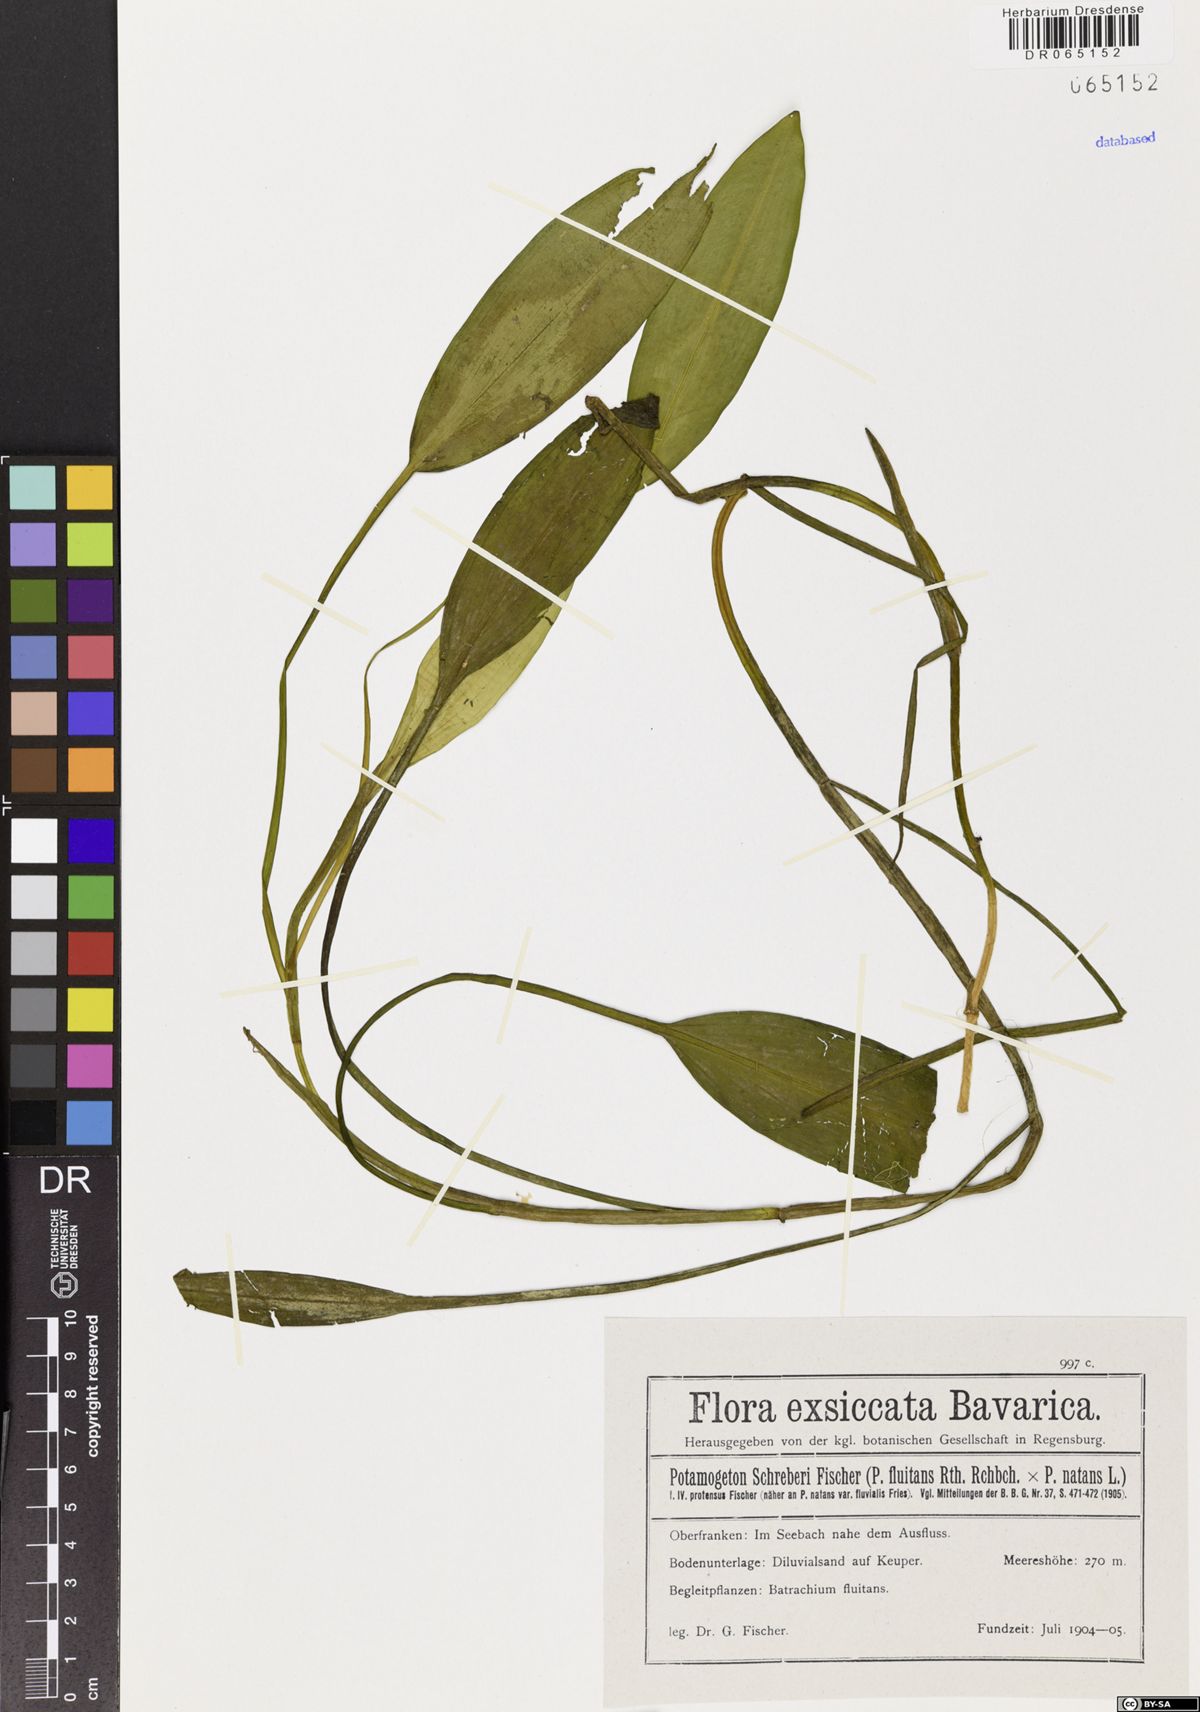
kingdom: Plantae
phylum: Tracheophyta
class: Liliopsida
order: Alismatales
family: Potamogetonaceae
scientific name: Potamogetonaceae
